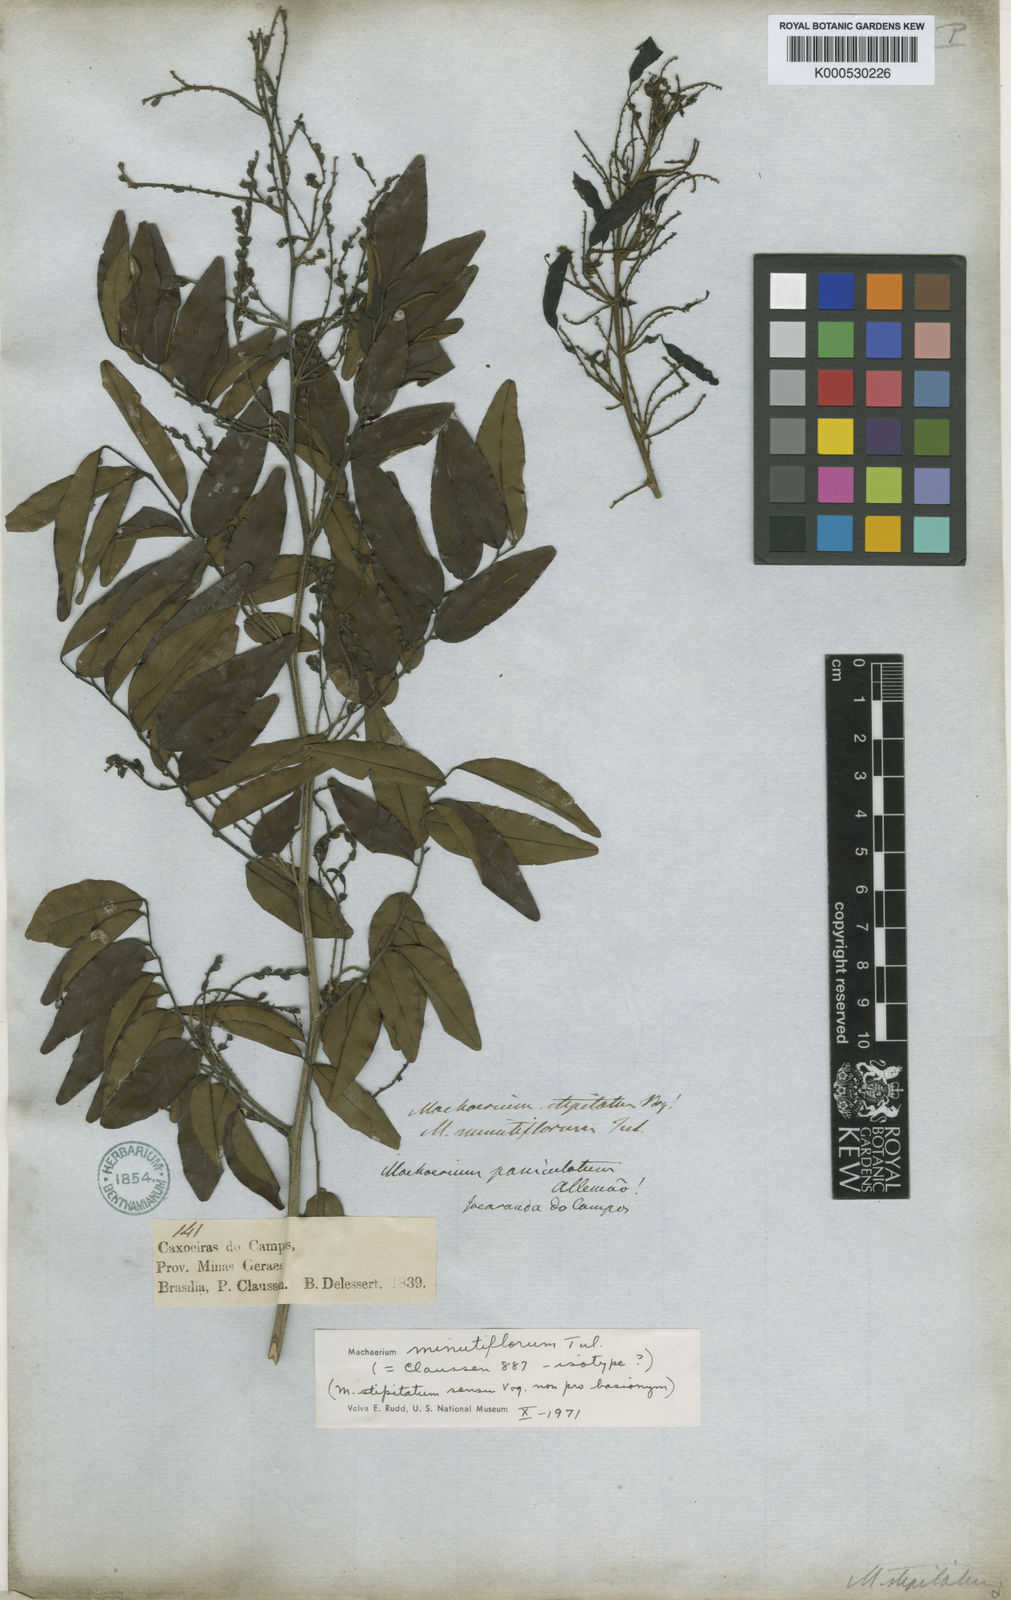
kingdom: Plantae
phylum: Tracheophyta
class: Magnoliopsida
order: Fabales
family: Fabaceae
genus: Machaerium
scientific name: Machaerium stipitatum
